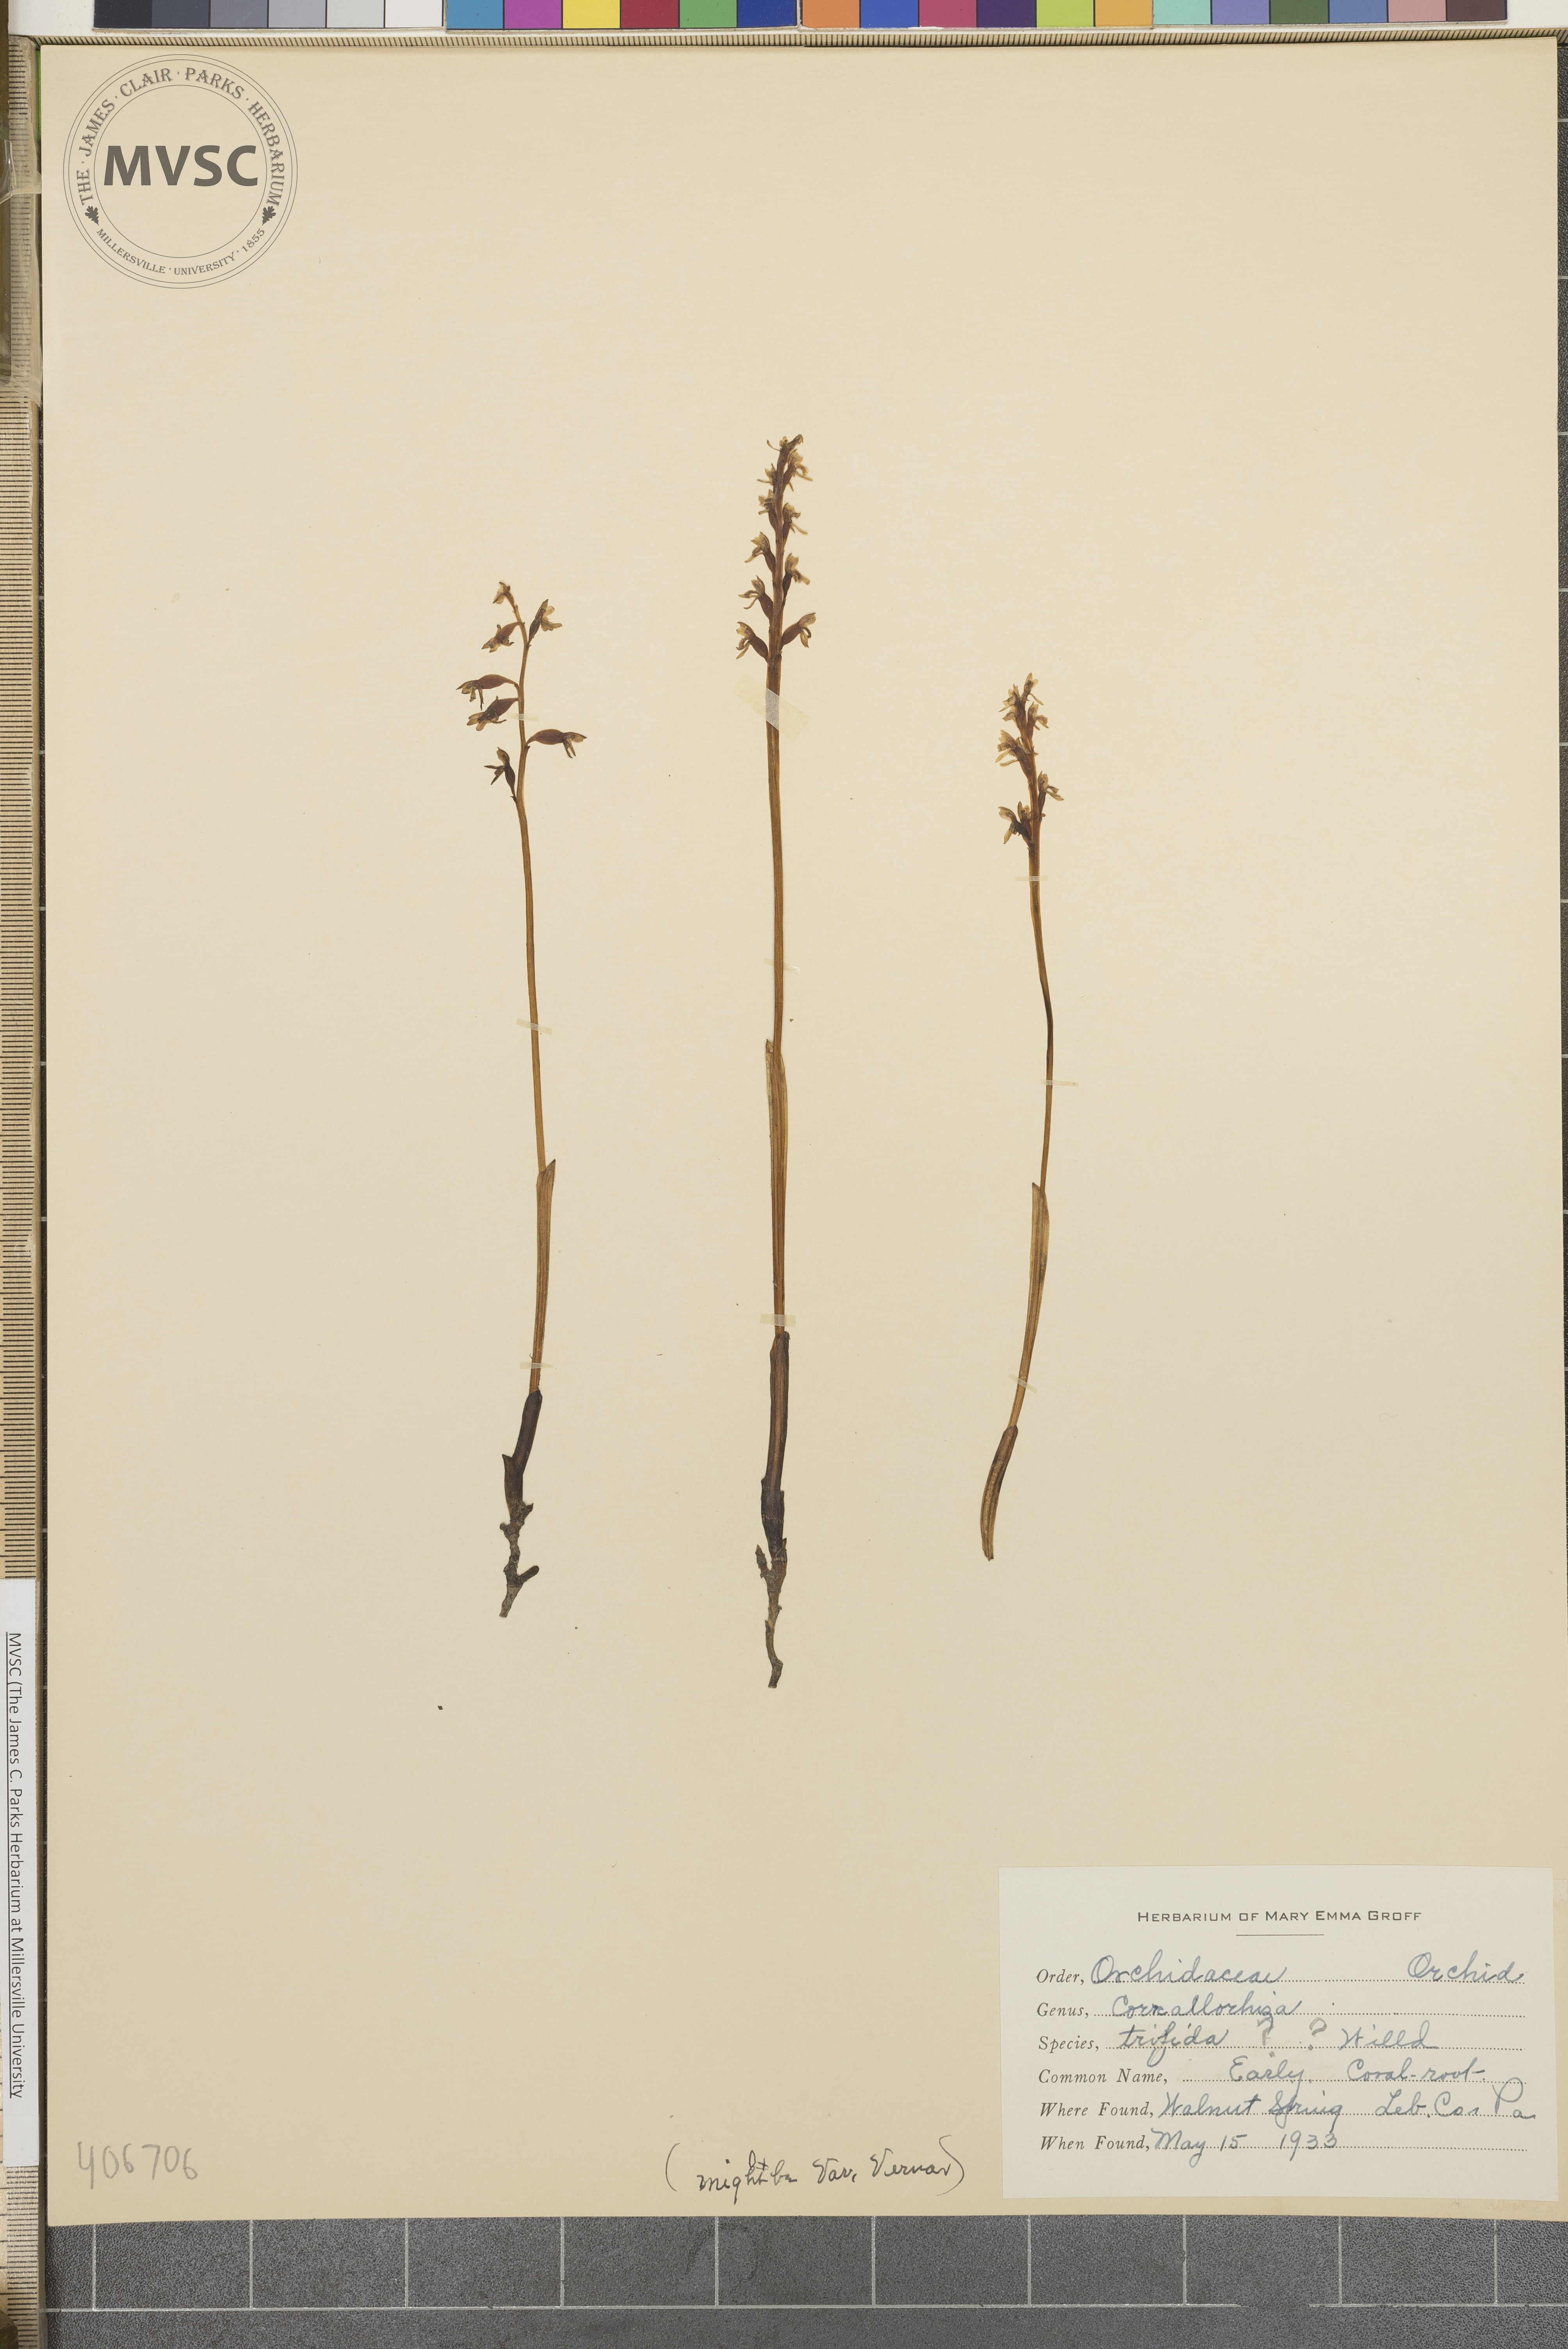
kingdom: Plantae
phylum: Tracheophyta
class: Liliopsida
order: Asparagales
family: Orchidaceae
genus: Corallorhiza
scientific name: Corallorhiza trifida
